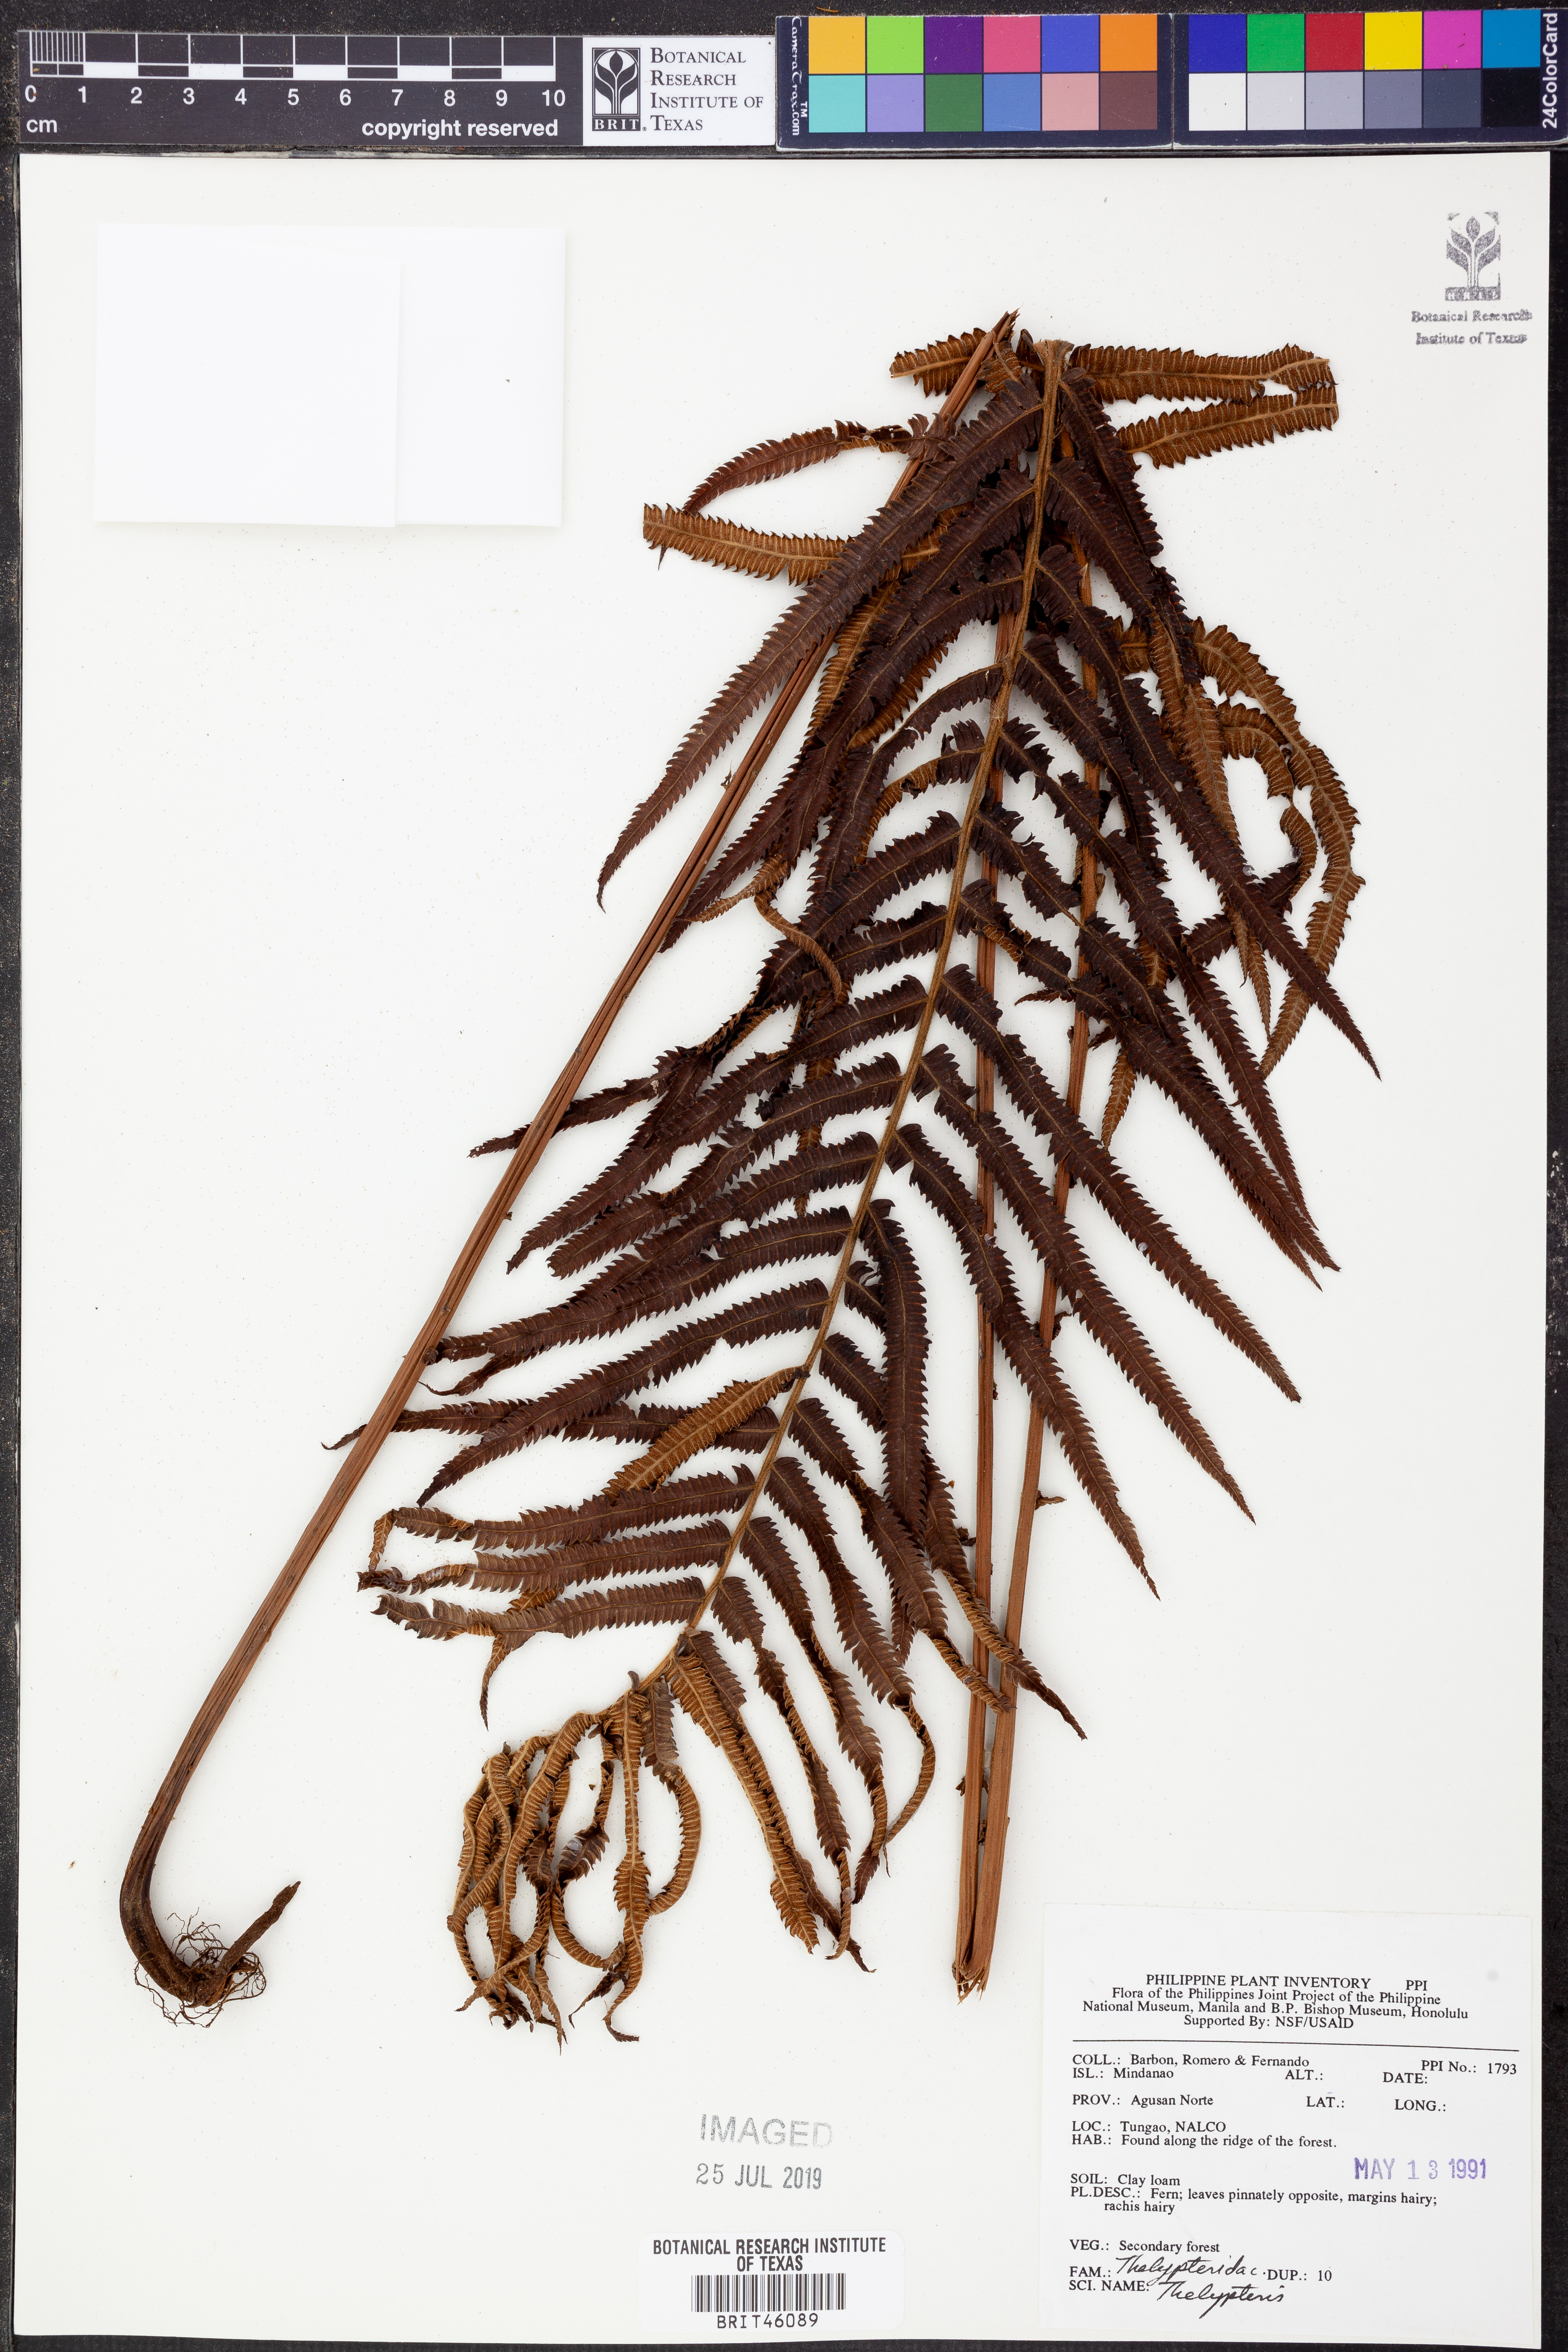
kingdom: Plantae
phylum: Tracheophyta
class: Polypodiopsida
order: Polypodiales
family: Thelypteridaceae
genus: Thelypteris
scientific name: Thelypteris
